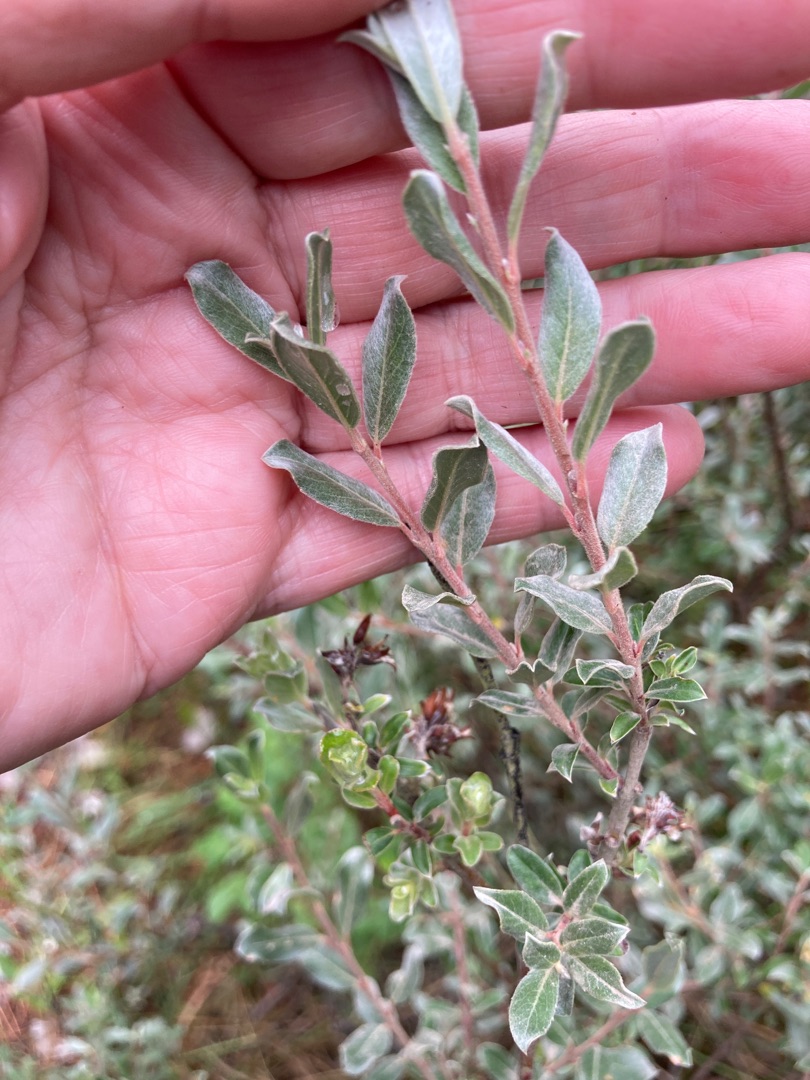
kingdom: Plantae
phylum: Tracheophyta
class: Magnoliopsida
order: Malpighiales
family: Salicaceae
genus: Salix
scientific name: Salix repens
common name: Krybende pil
